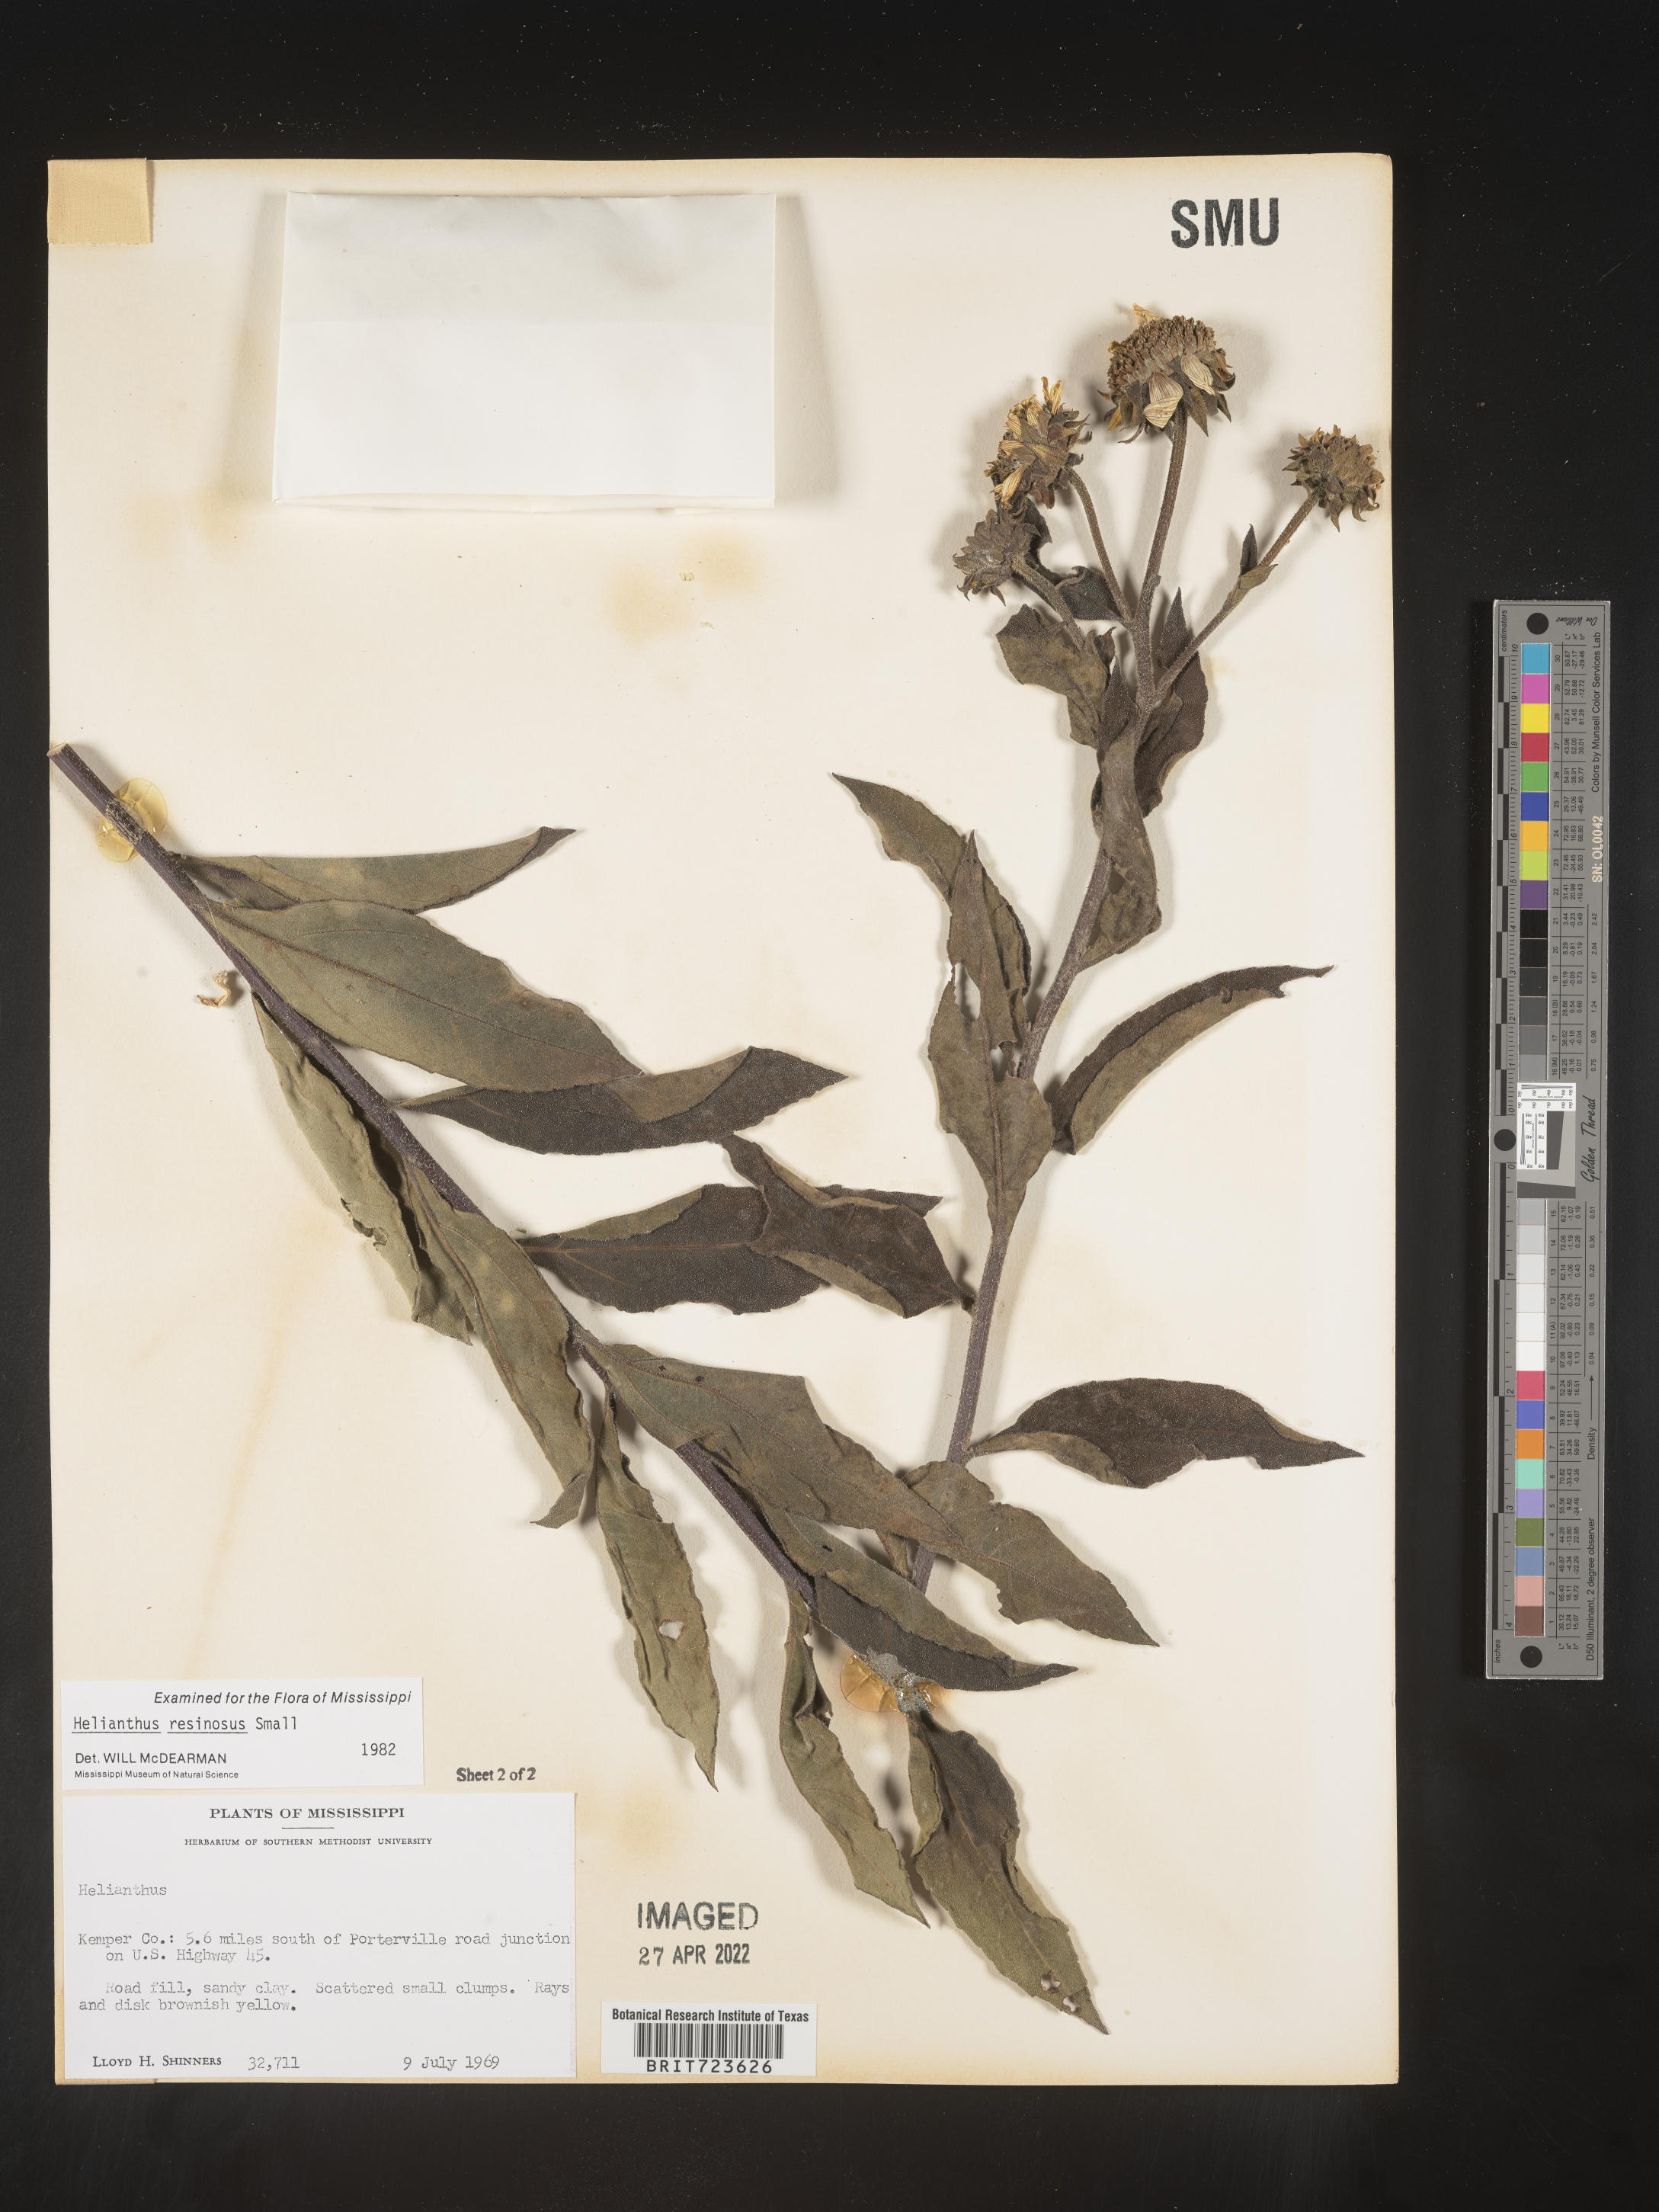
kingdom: Plantae
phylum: Tracheophyta
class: Magnoliopsida
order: Asterales
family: Asteraceae
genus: Helianthus
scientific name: Helianthus resinosus
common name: Resin-dot sunflower
